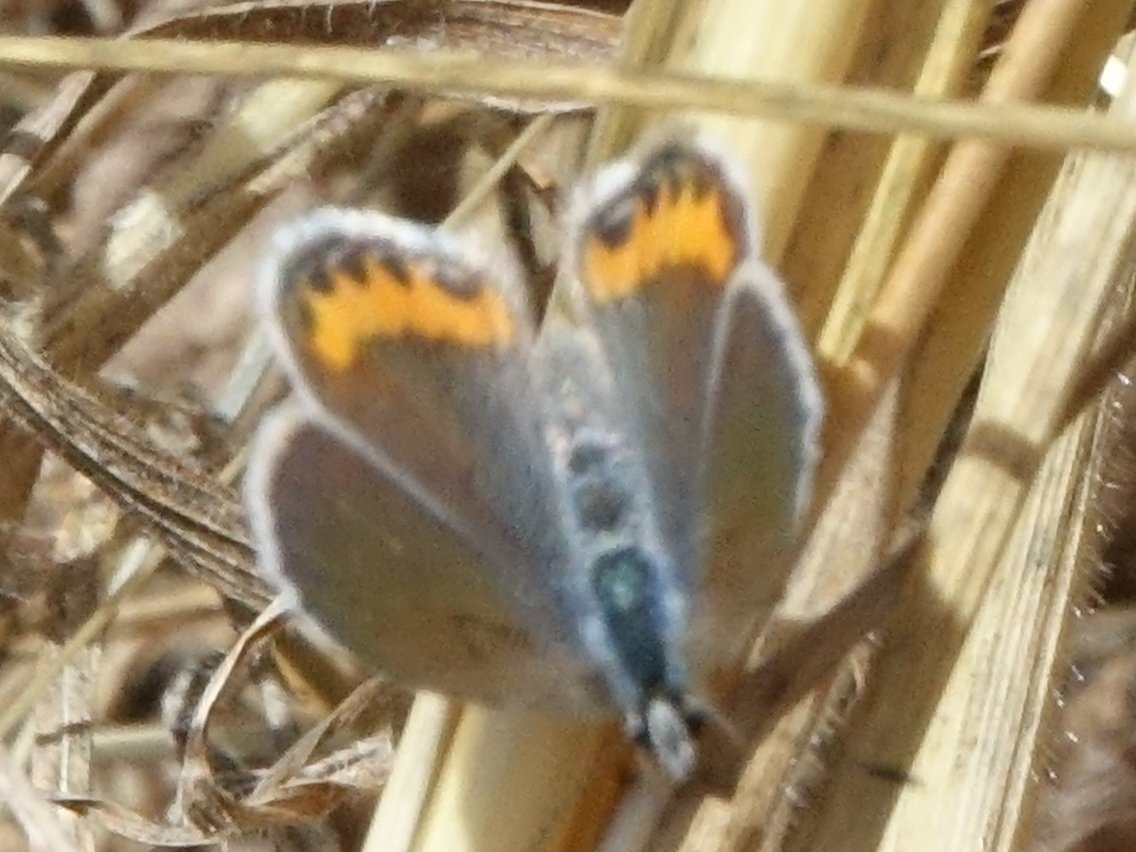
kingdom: Animalia
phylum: Arthropoda
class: Insecta
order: Lepidoptera
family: Lycaenidae
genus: Plebejus
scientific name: Plebejus acmon
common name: Acmon Blue
